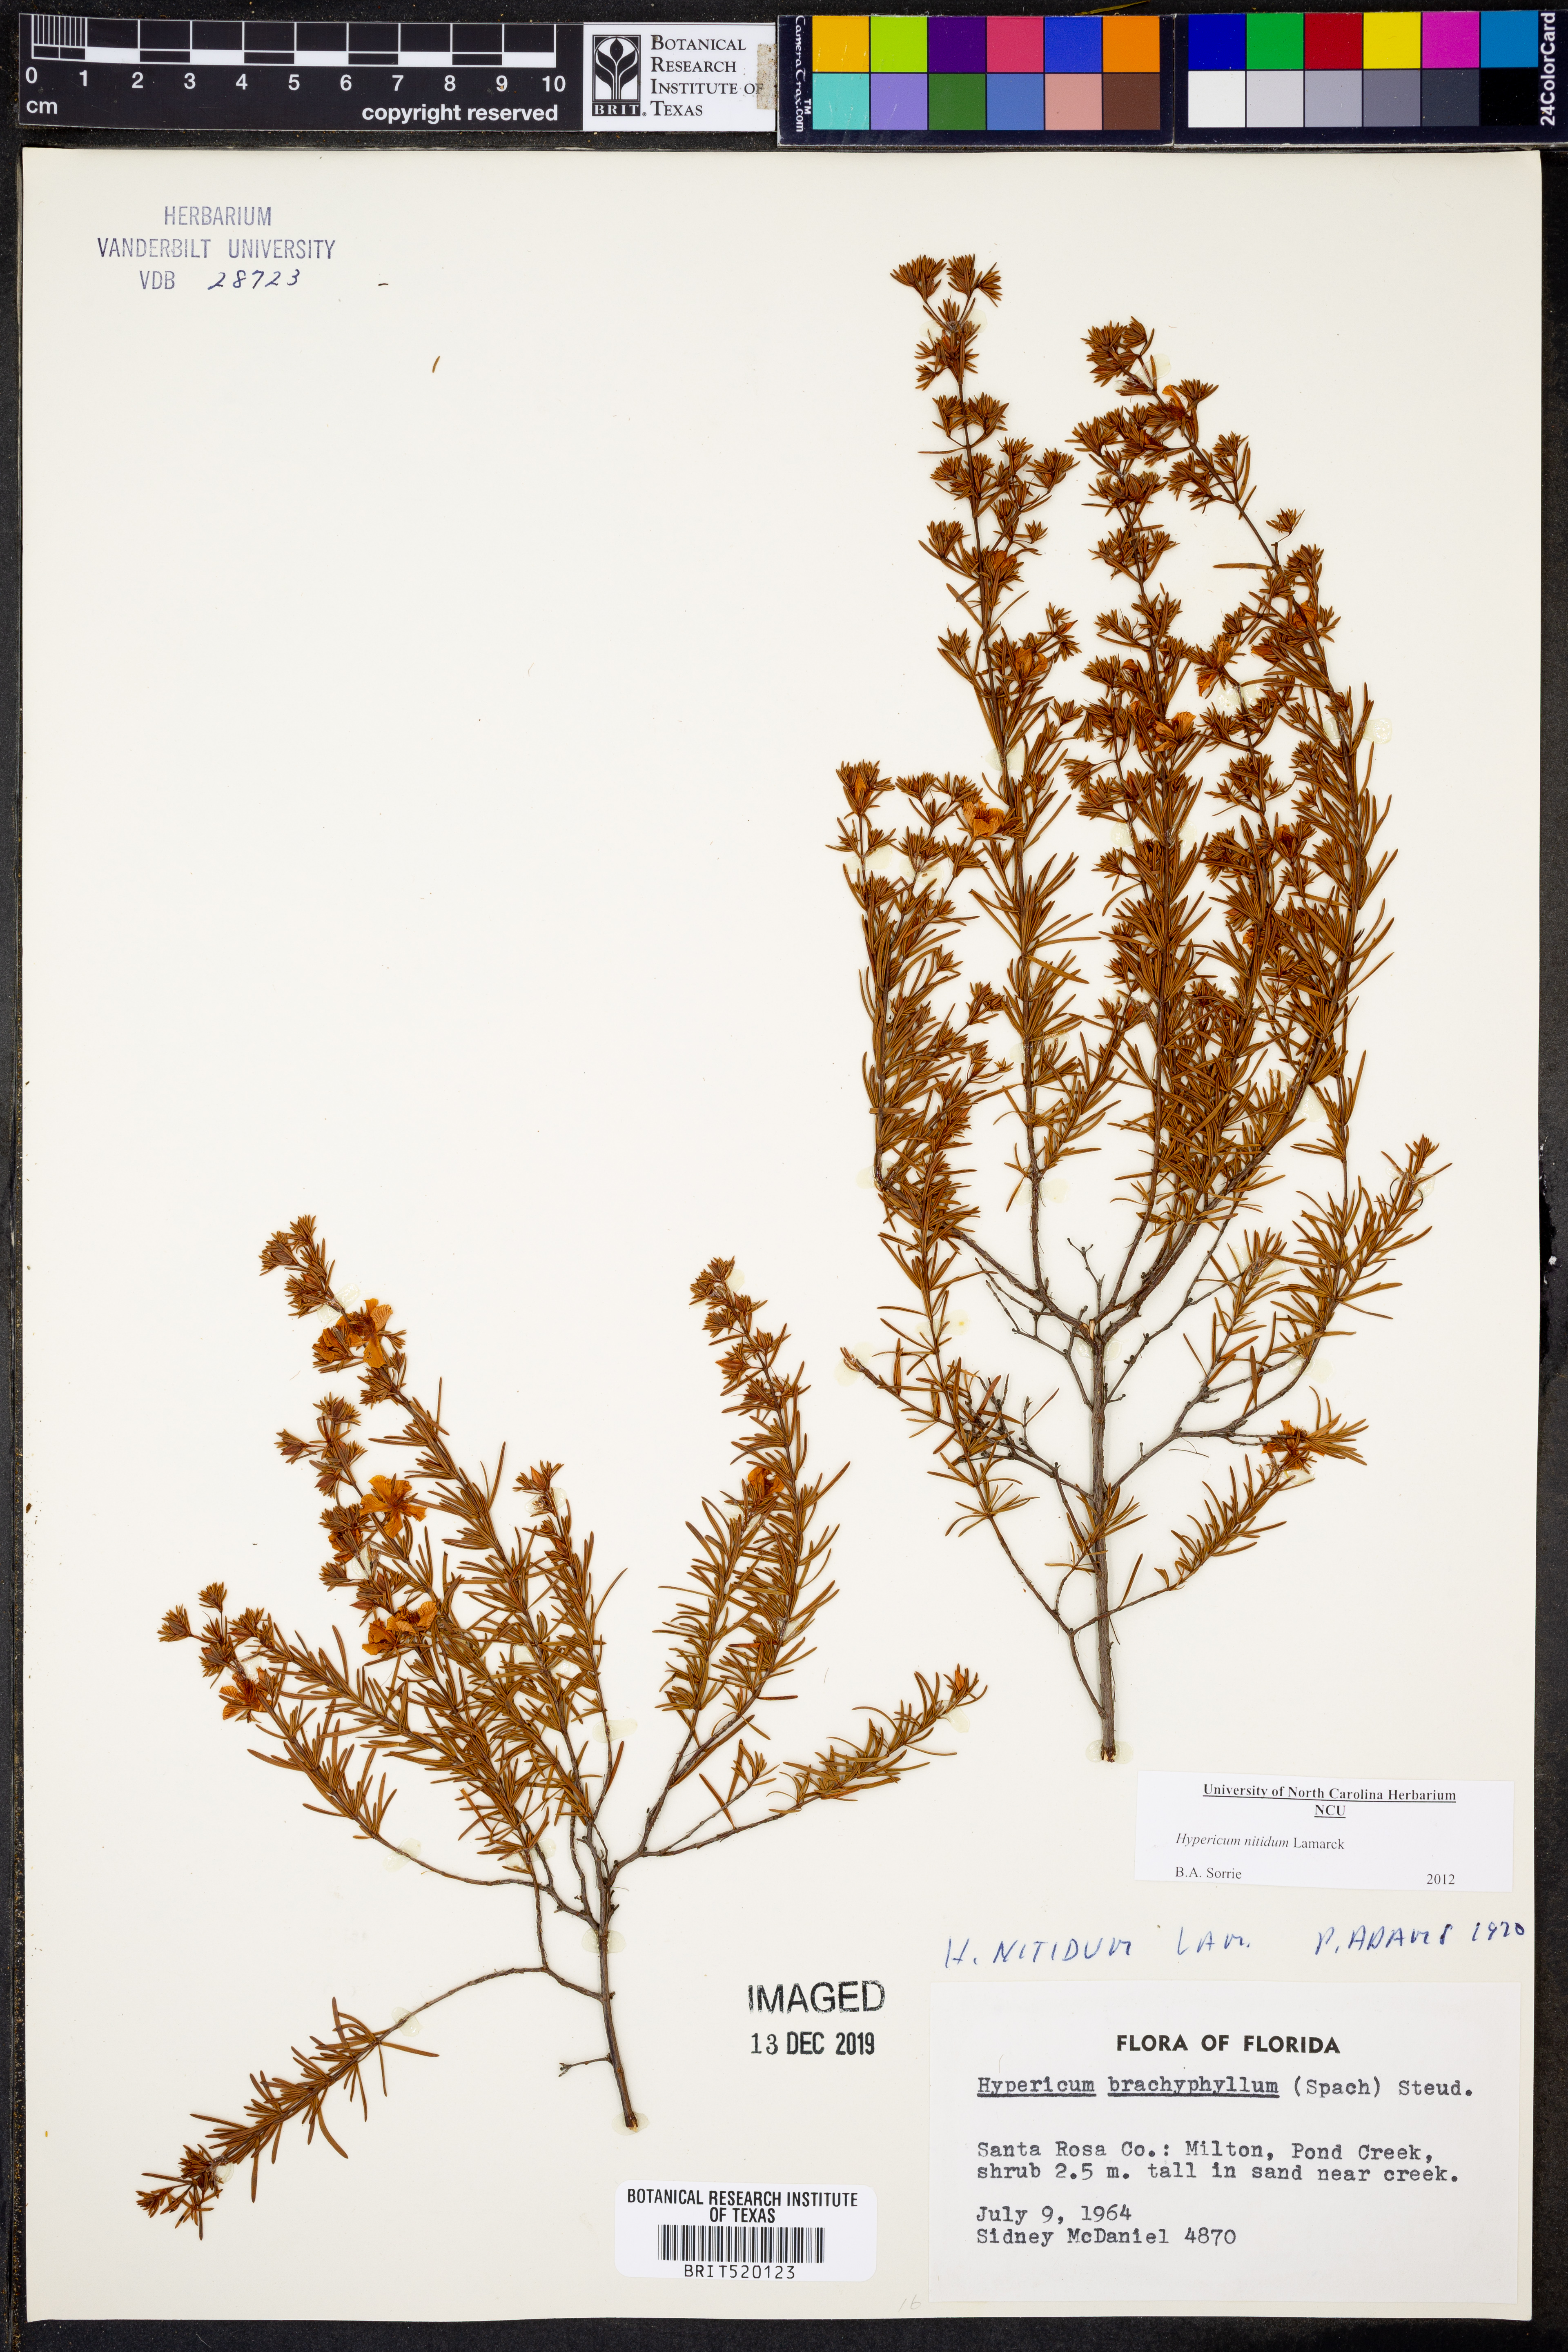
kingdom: Plantae
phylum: Tracheophyta
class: Magnoliopsida
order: Malpighiales
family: Hypericaceae
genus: Hypericum
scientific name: Hypericum nitidum
